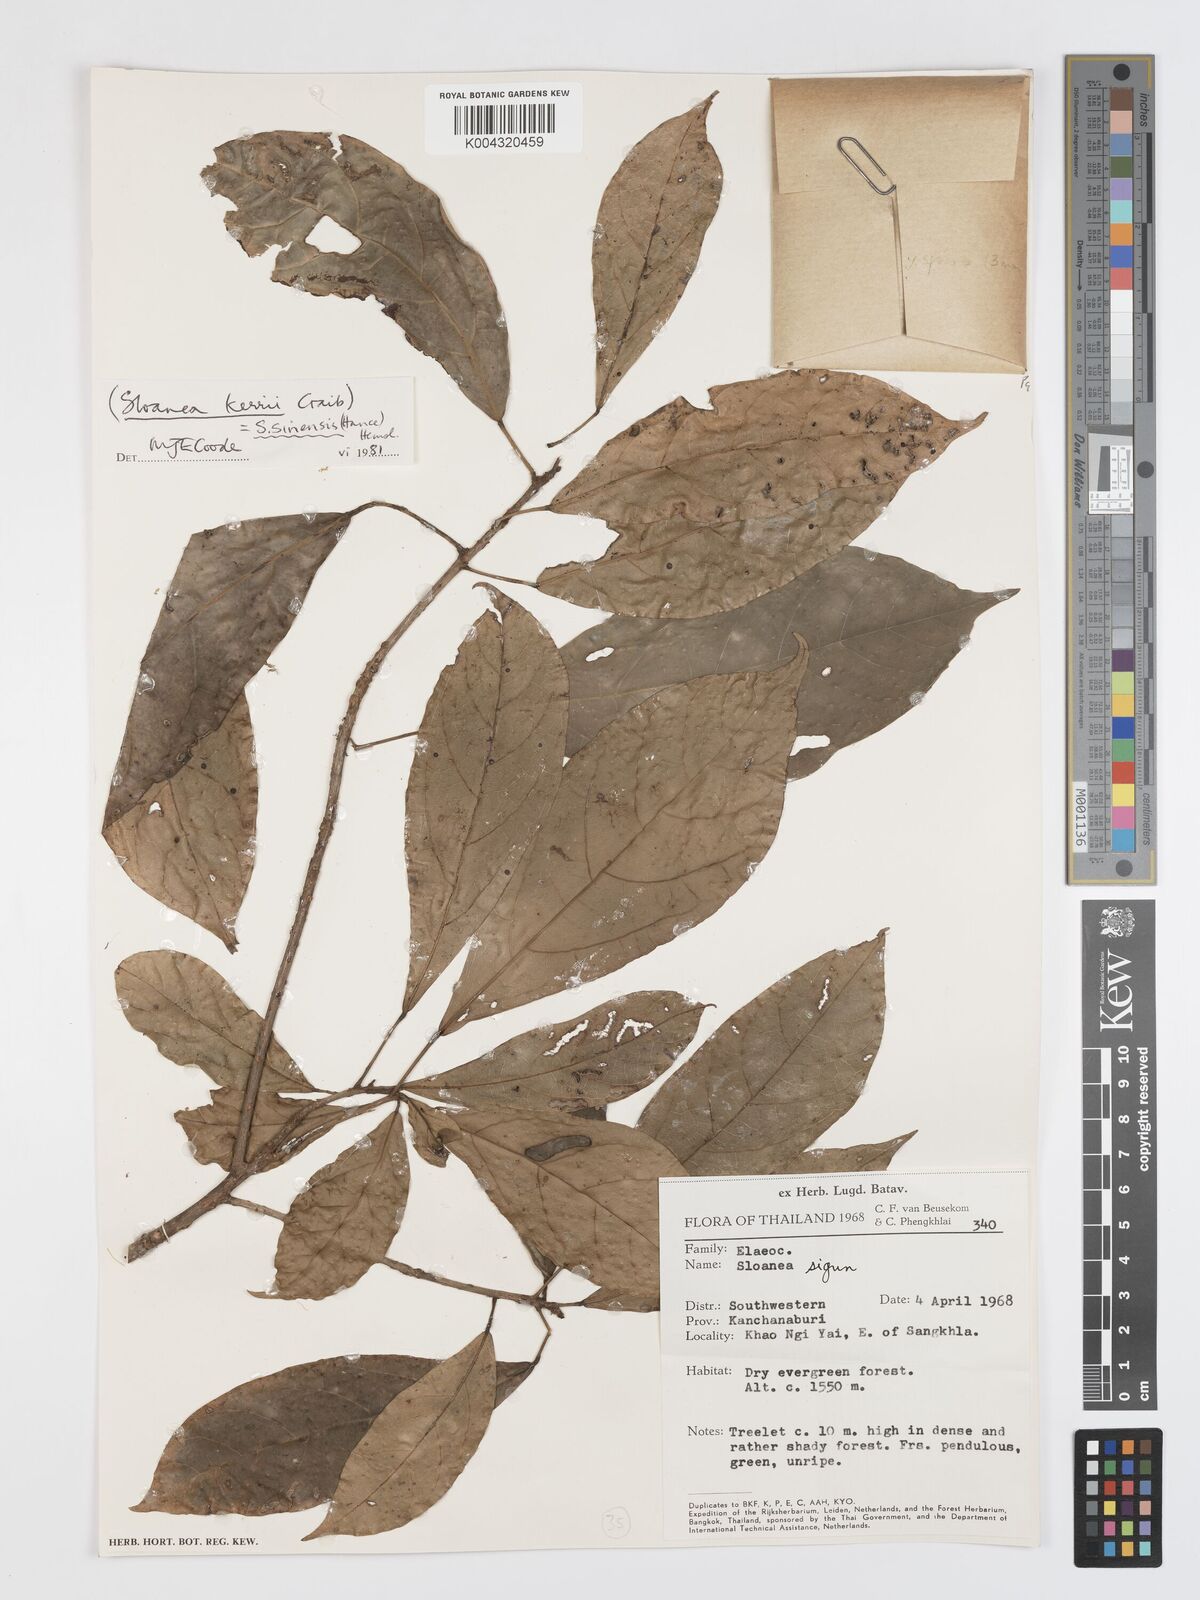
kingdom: Plantae
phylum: Tracheophyta
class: Magnoliopsida
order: Oxalidales
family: Elaeocarpaceae
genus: Sloanea
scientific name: Sloanea sinensis
